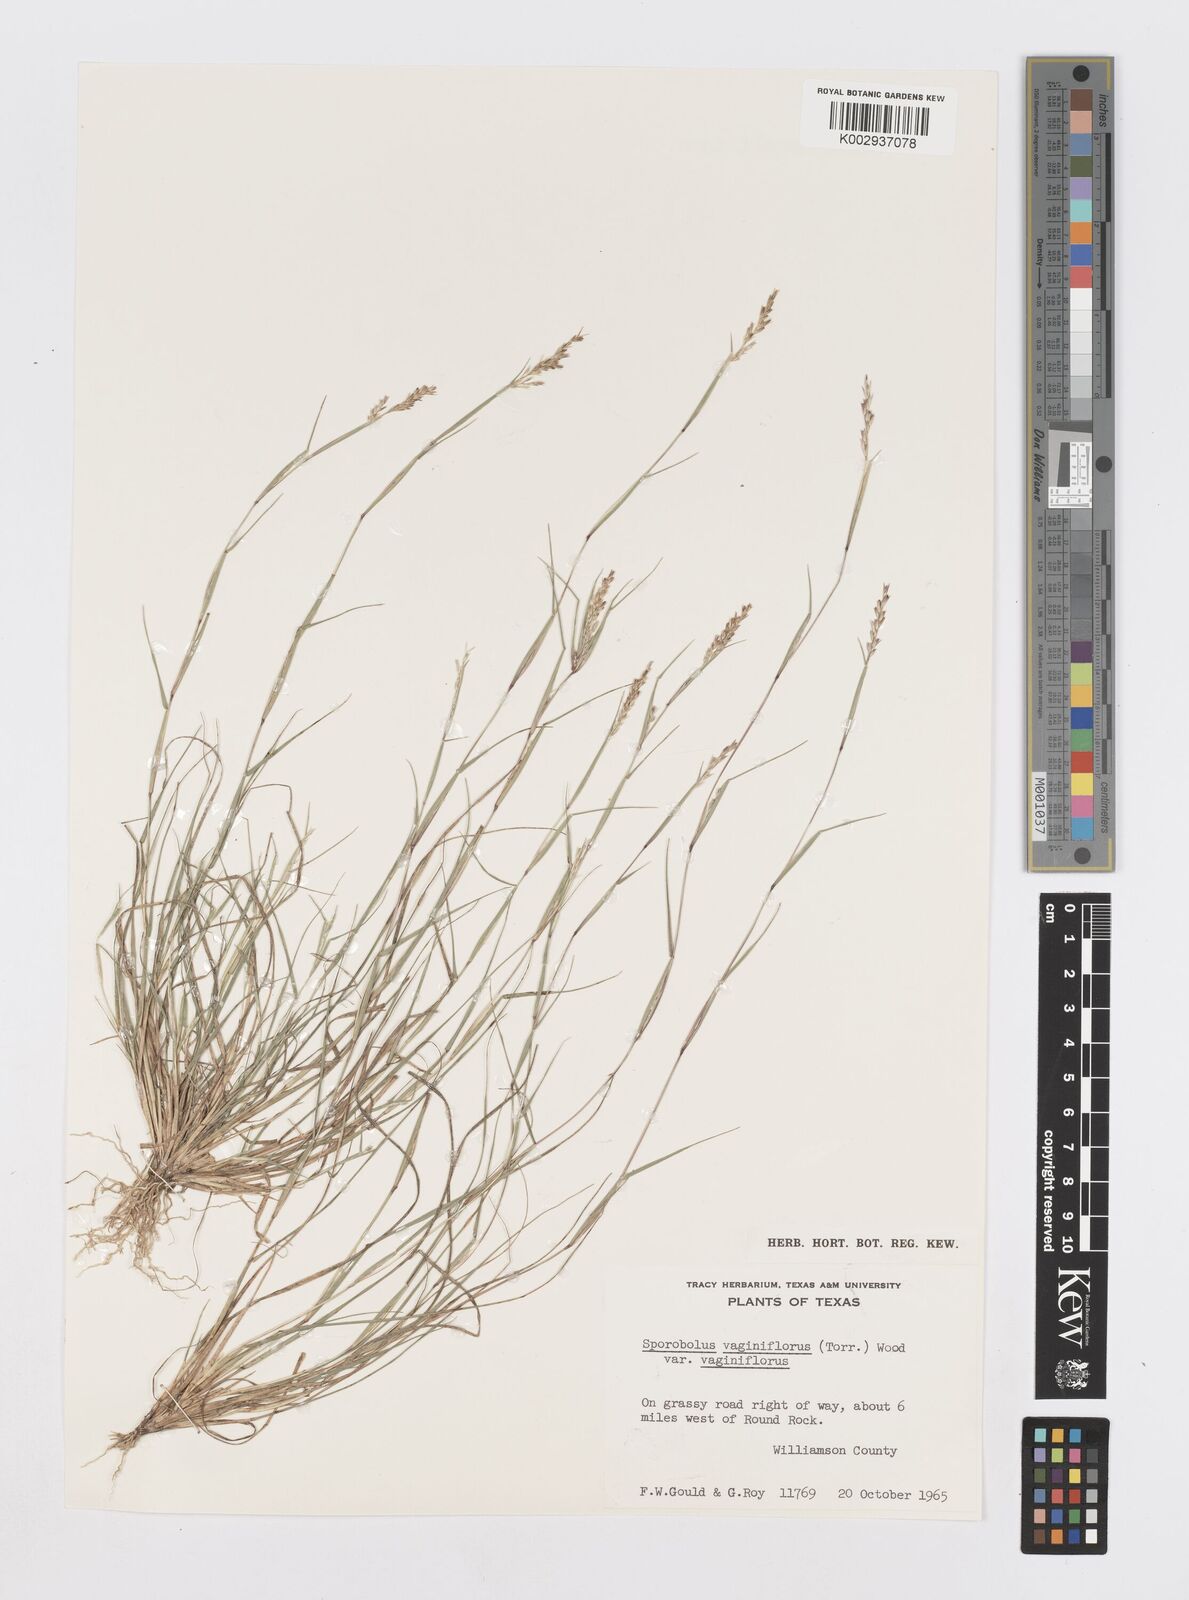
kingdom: Plantae
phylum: Tracheophyta
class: Liliopsida
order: Poales
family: Poaceae
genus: Sporobolus
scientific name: Sporobolus vaginiflorus
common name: Poverty dropseed
